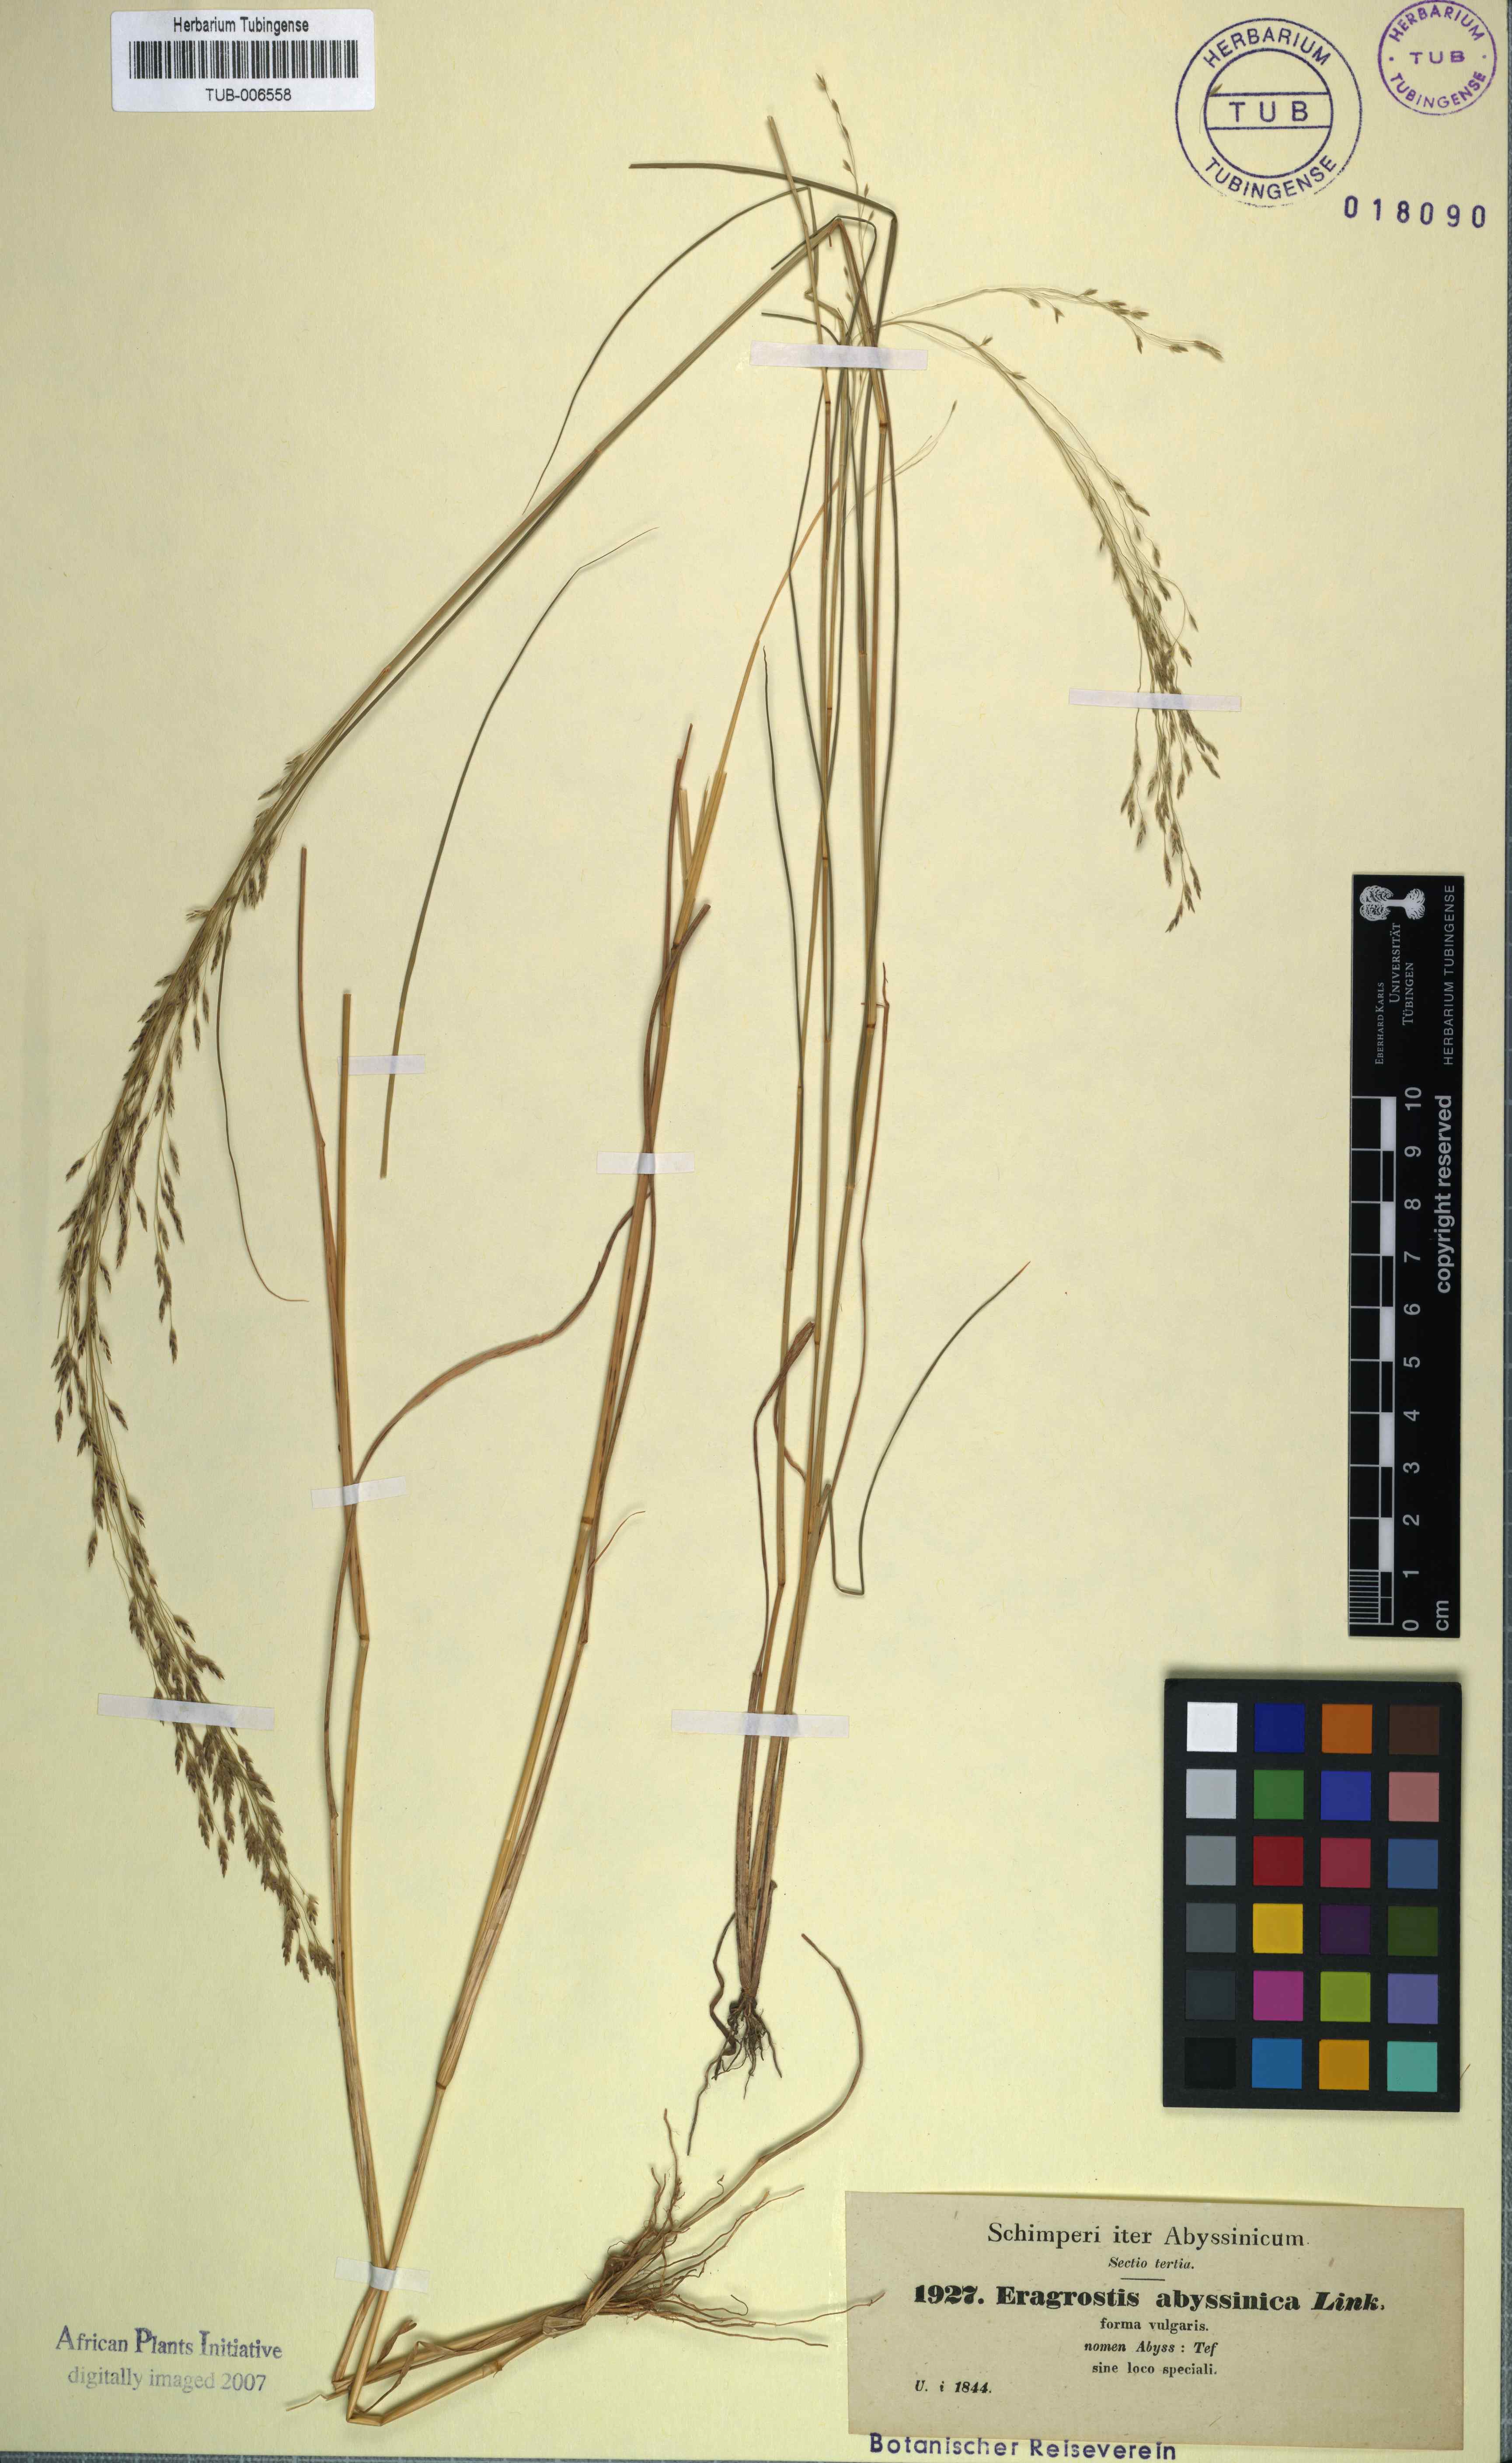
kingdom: Plantae
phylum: Tracheophyta
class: Liliopsida
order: Poales
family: Poaceae
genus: Eragrostis
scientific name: Eragrostis tef
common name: Teff
